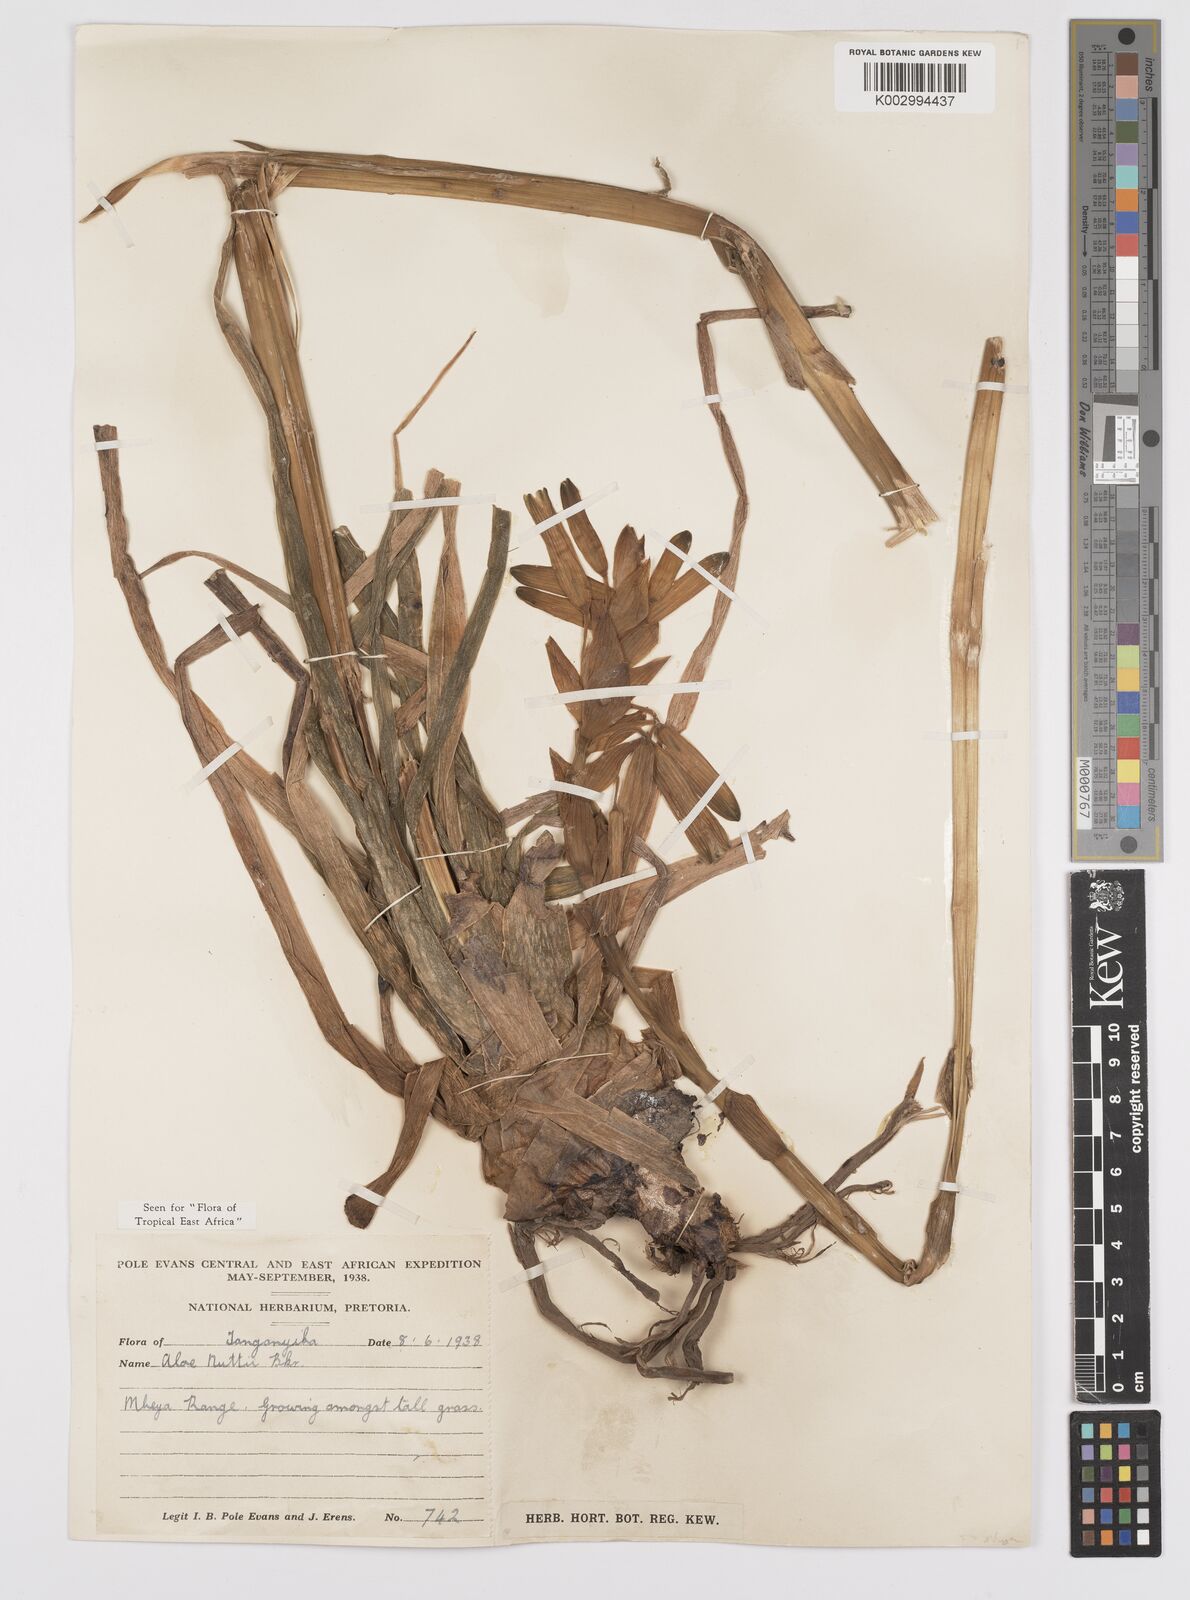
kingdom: Plantae
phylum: Tracheophyta
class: Liliopsida
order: Asparagales
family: Asphodelaceae
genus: Aloe
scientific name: Aloe nuttii
